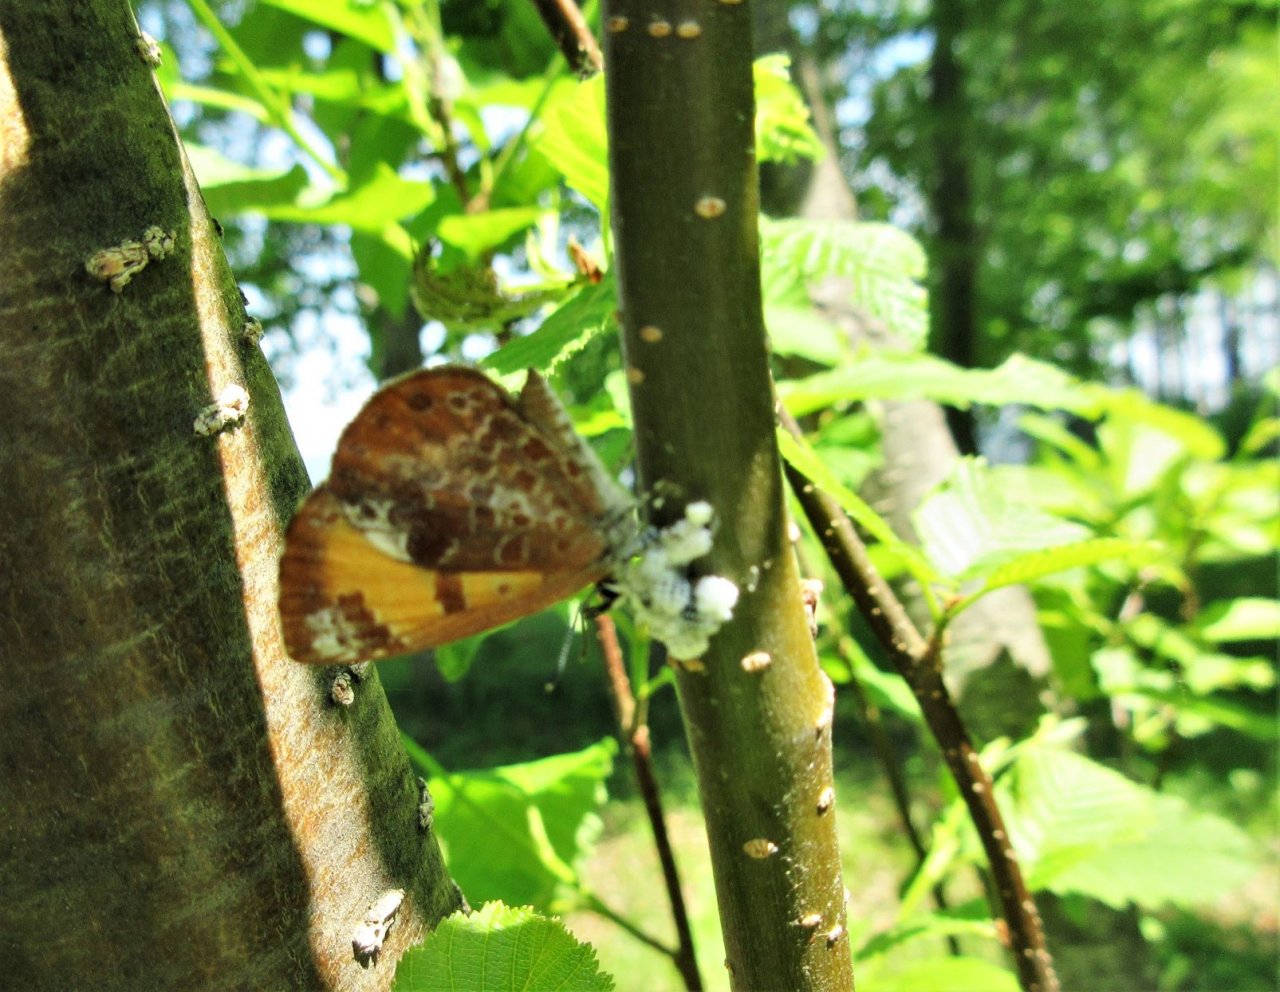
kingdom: Animalia
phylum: Arthropoda
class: Insecta
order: Lepidoptera
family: Lycaenidae
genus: Feniseca
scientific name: Feniseca tarquinius
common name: Harvester
